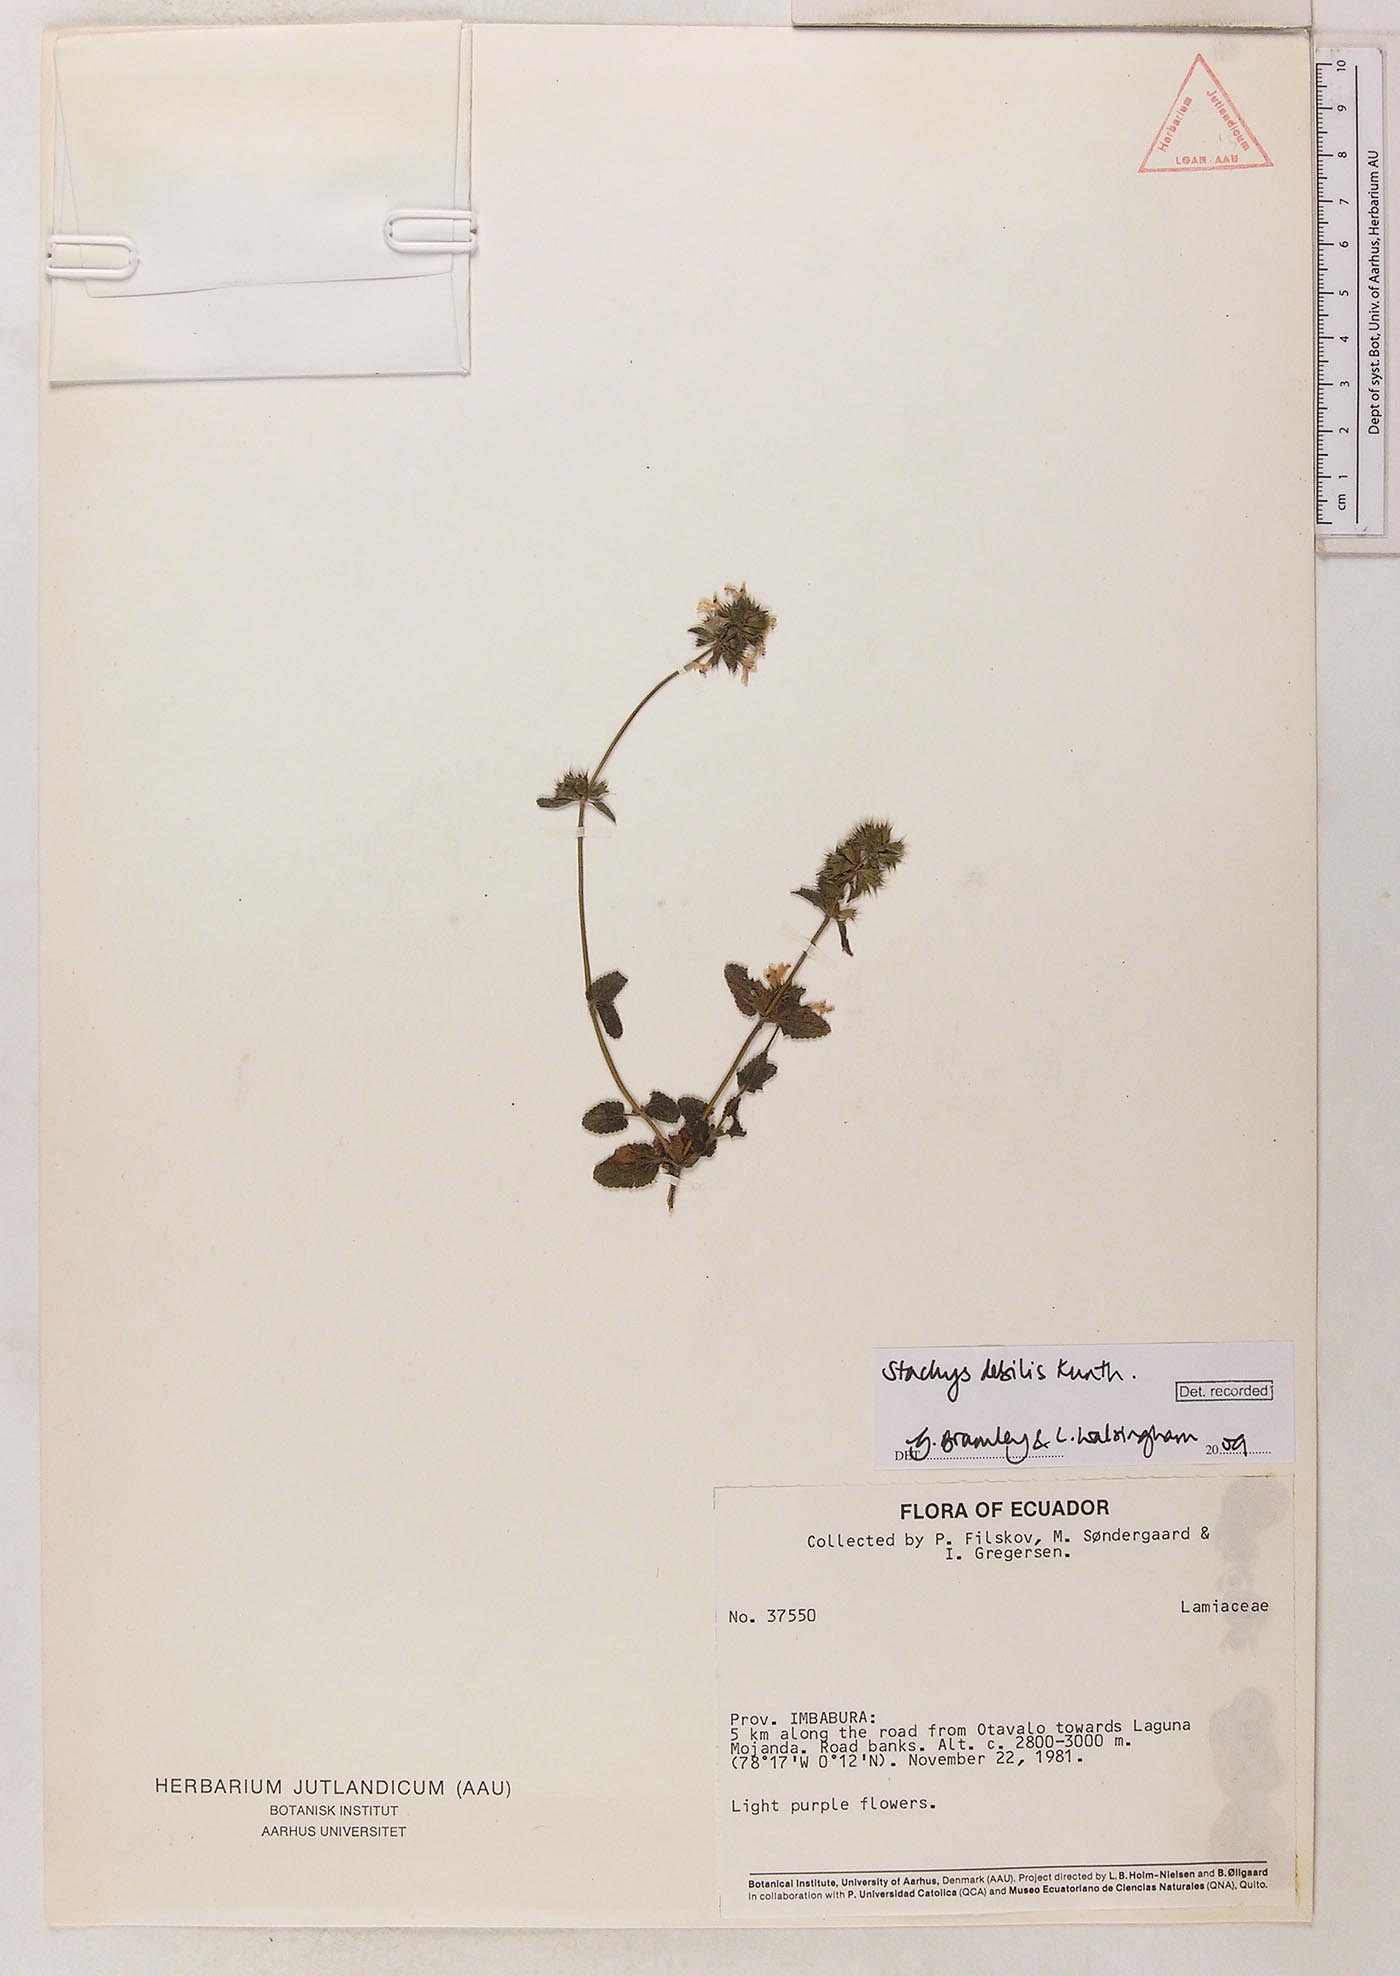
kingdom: Plantae
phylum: Tracheophyta
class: Magnoliopsida
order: Lamiales
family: Lamiaceae
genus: Stachys
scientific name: Stachys debilis
